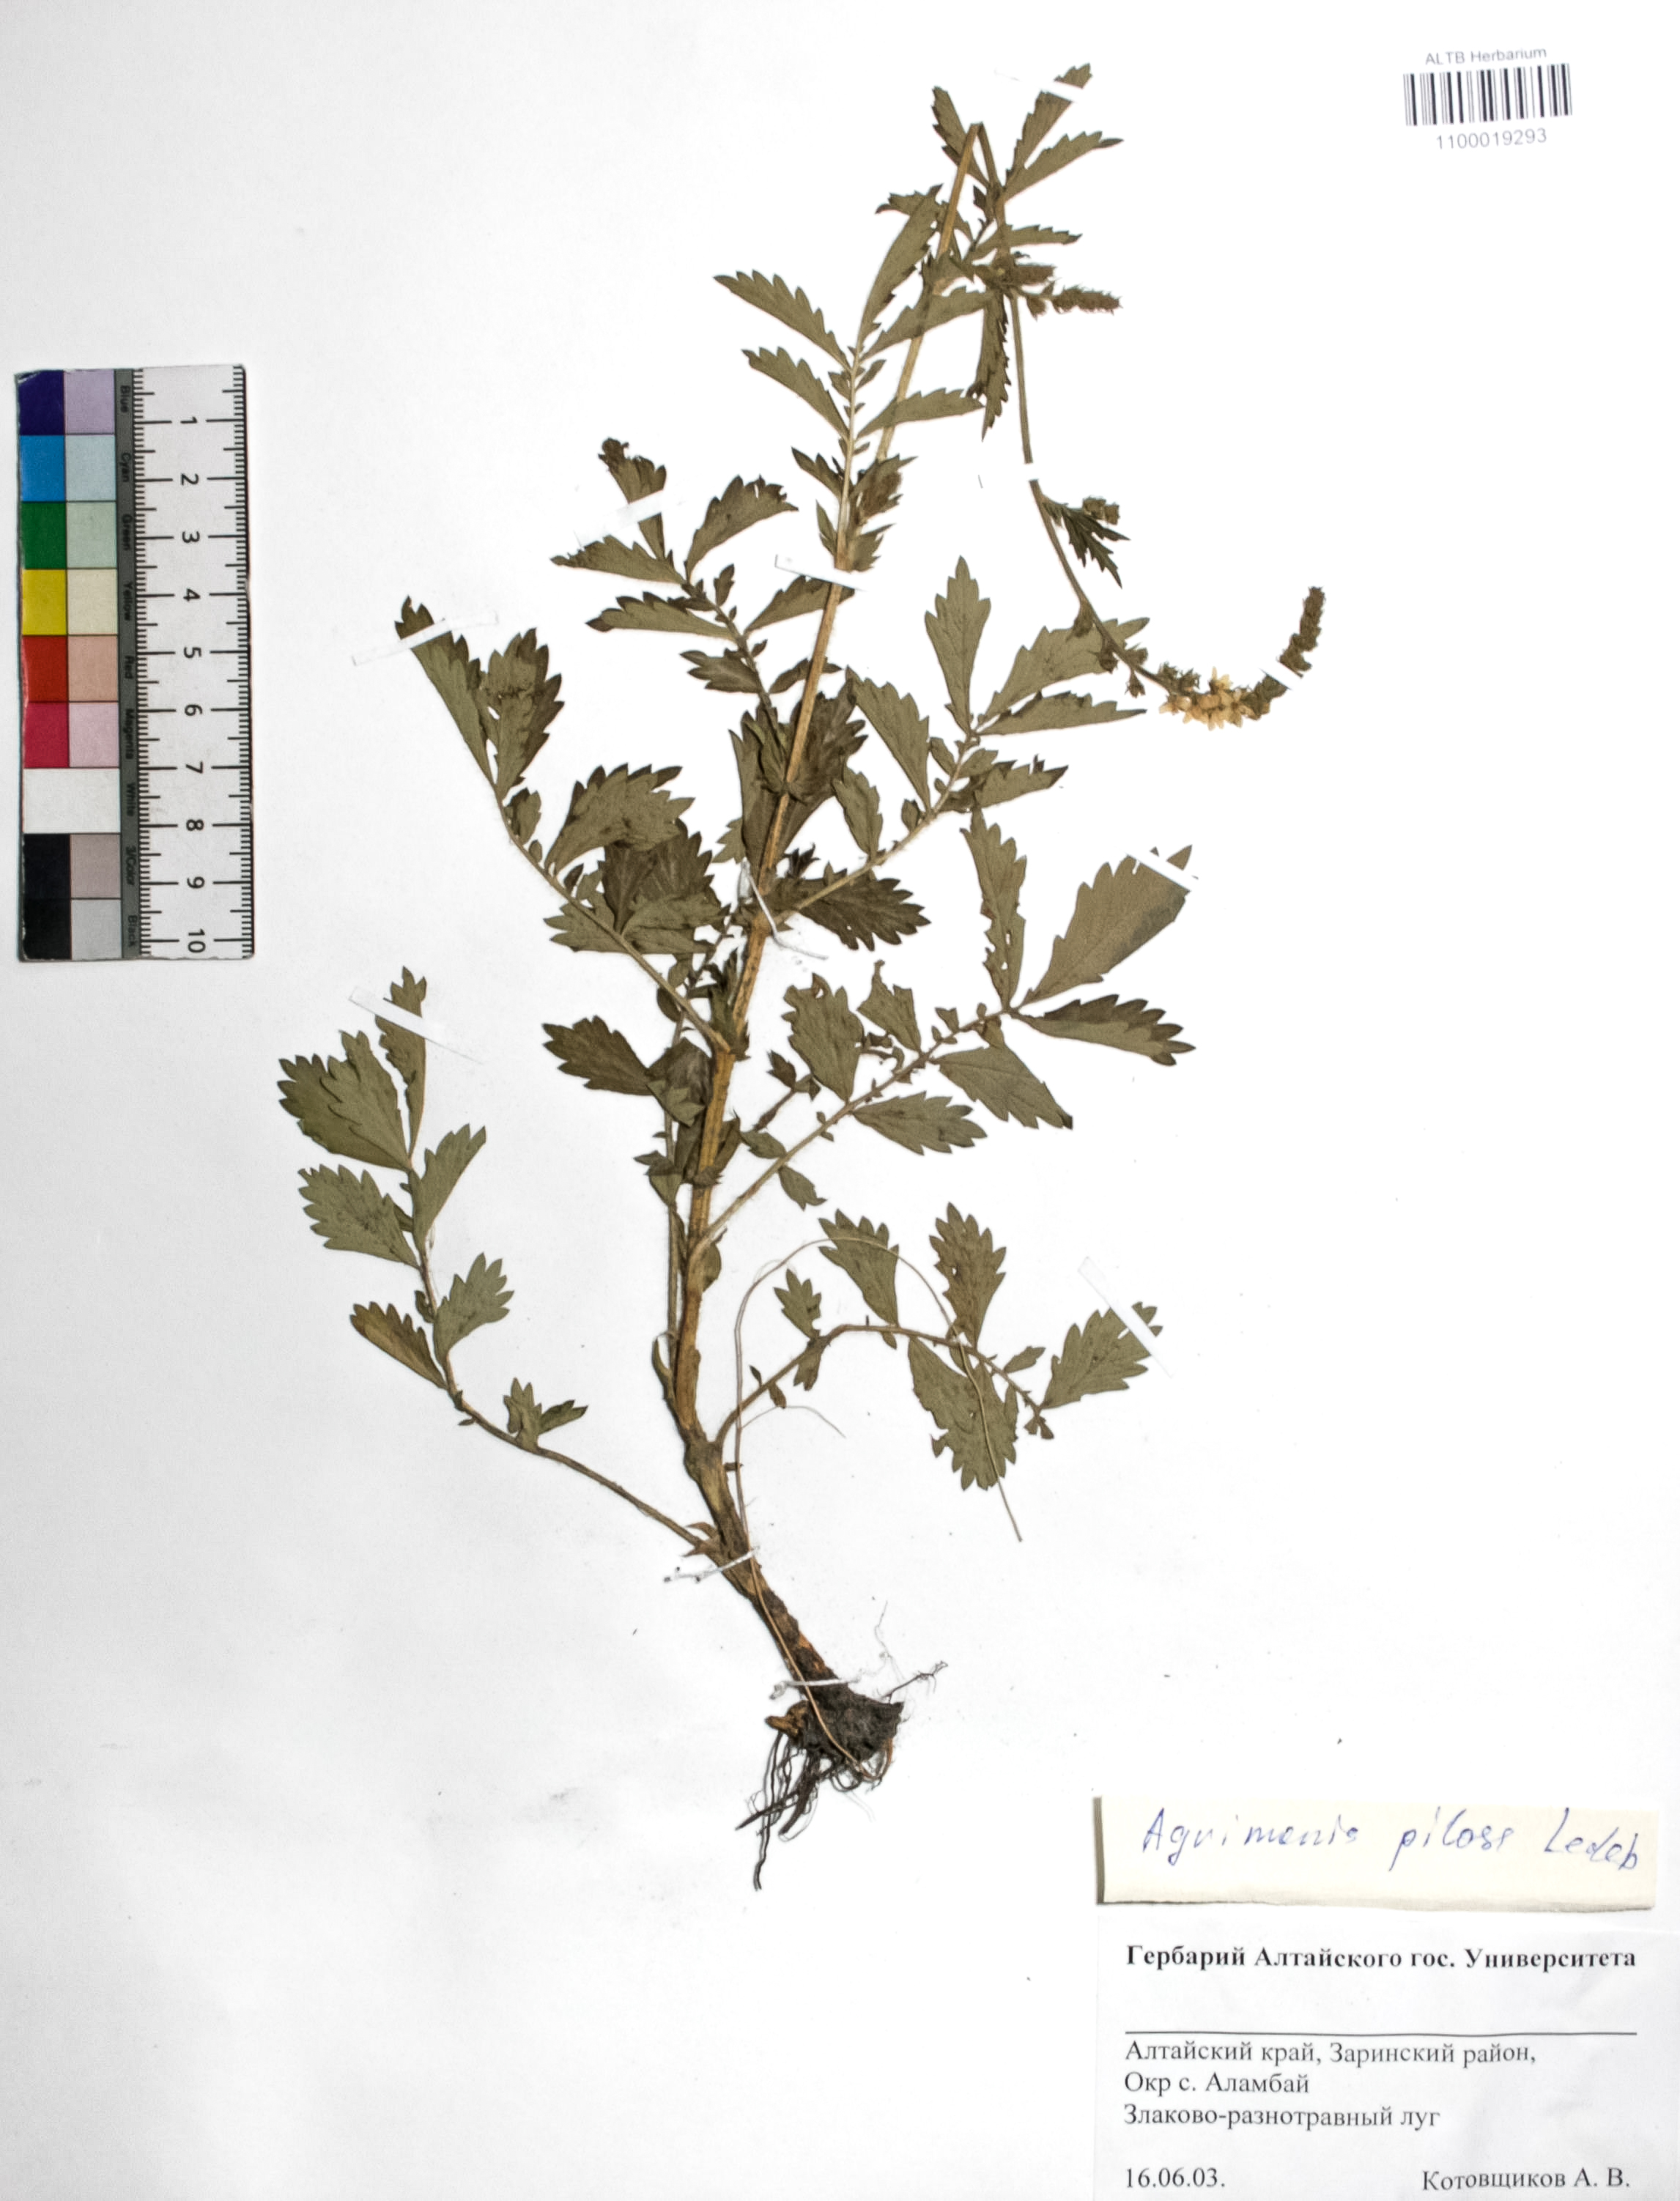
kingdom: Plantae
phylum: Tracheophyta
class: Magnoliopsida
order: Rosales
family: Rosaceae
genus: Agrimonia
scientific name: Agrimonia pilosa
